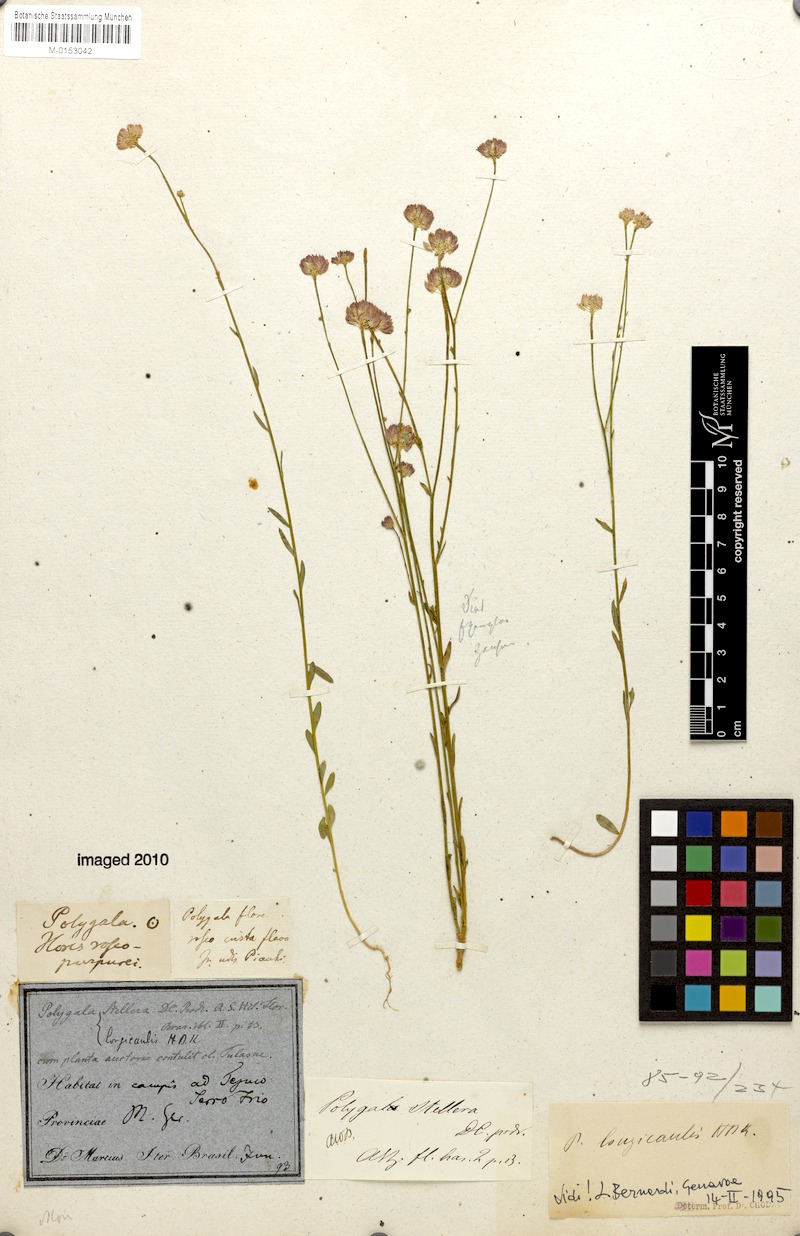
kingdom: Plantae
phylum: Tracheophyta
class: Magnoliopsida
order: Fabales
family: Polygalaceae
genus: Polygala
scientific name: Polygala longicaulis
